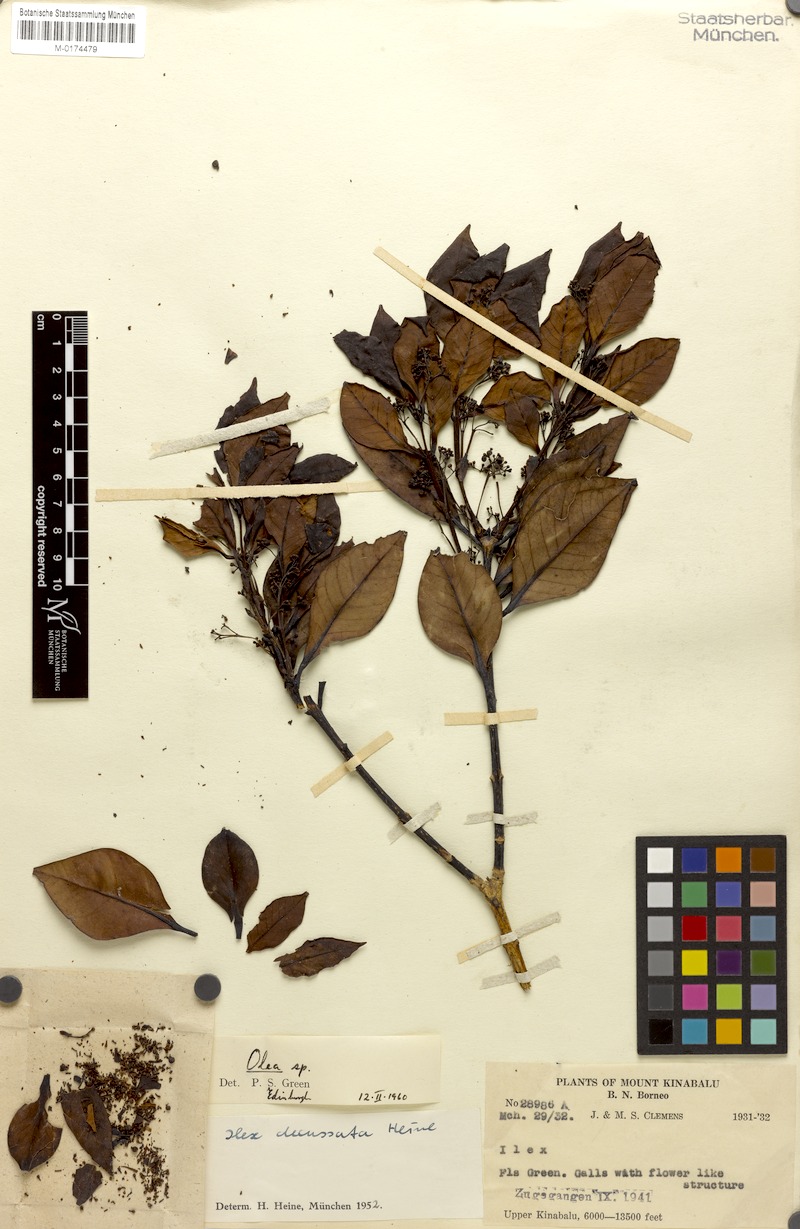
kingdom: Plantae
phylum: Tracheophyta
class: Magnoliopsida
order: Lamiales
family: Oleaceae
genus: Tetrapilus
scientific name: Tetrapilus rubrovenius
